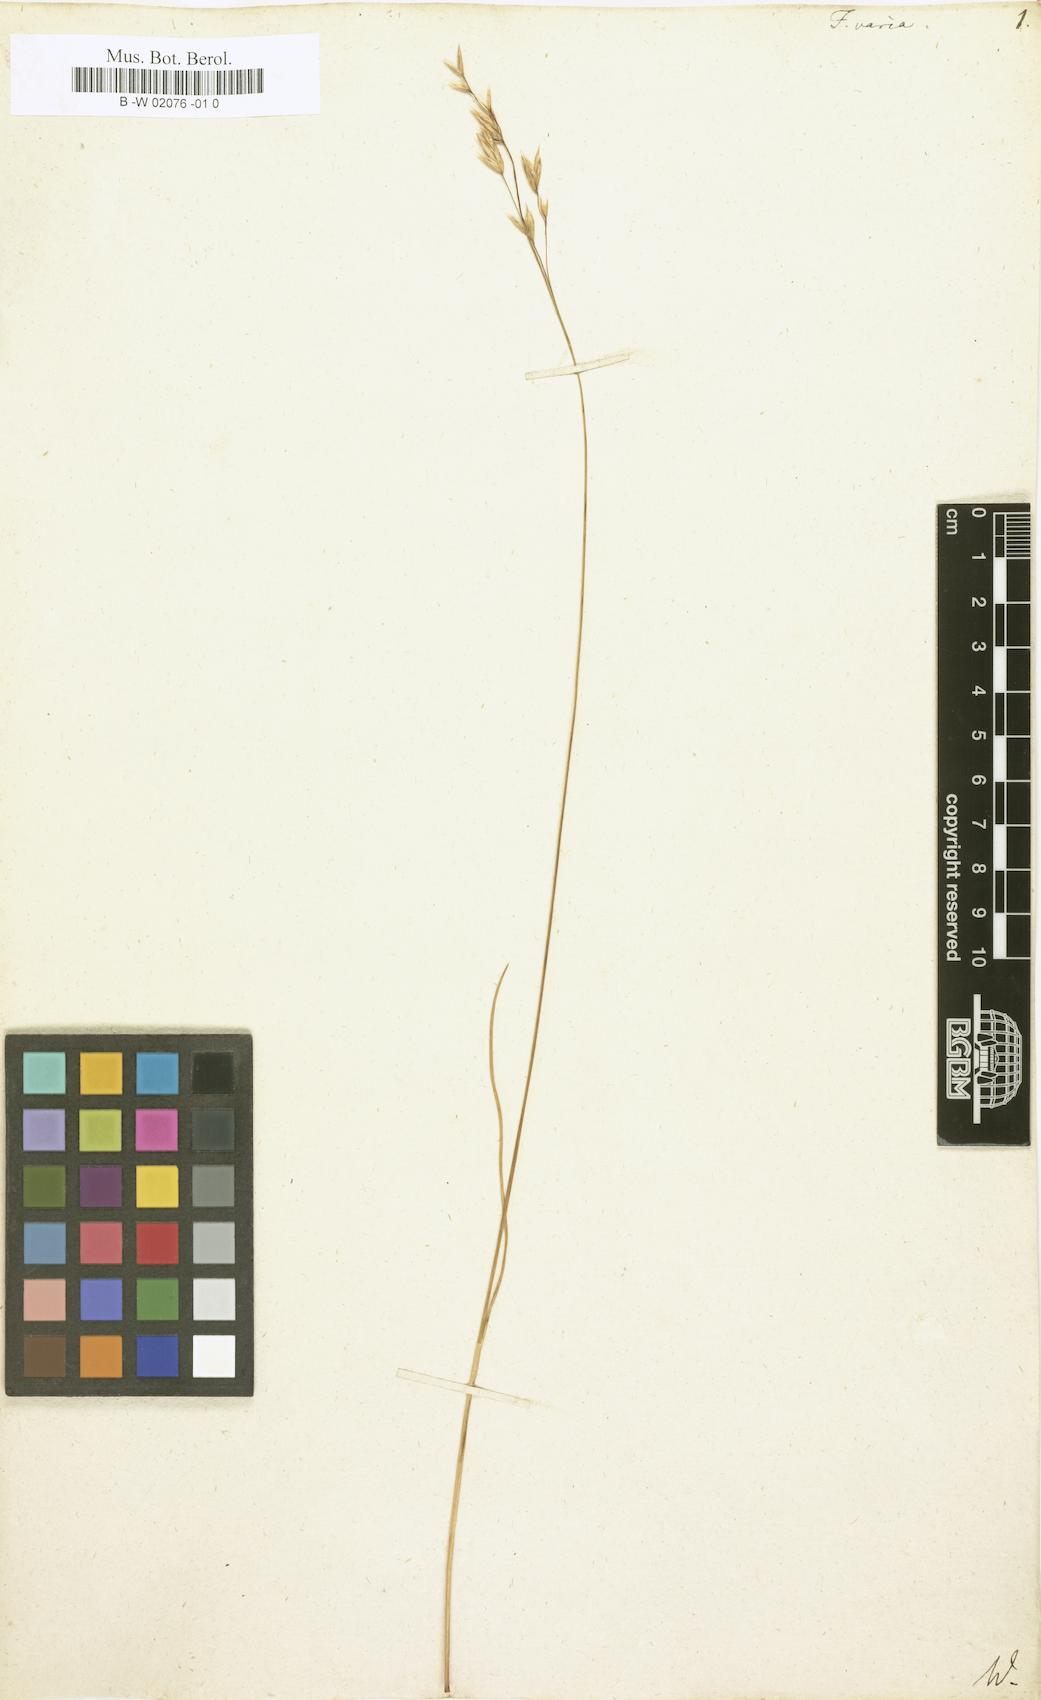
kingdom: Plantae
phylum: Tracheophyta
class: Liliopsida
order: Poales
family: Poaceae
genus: Festuca
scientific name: Festuca varia
